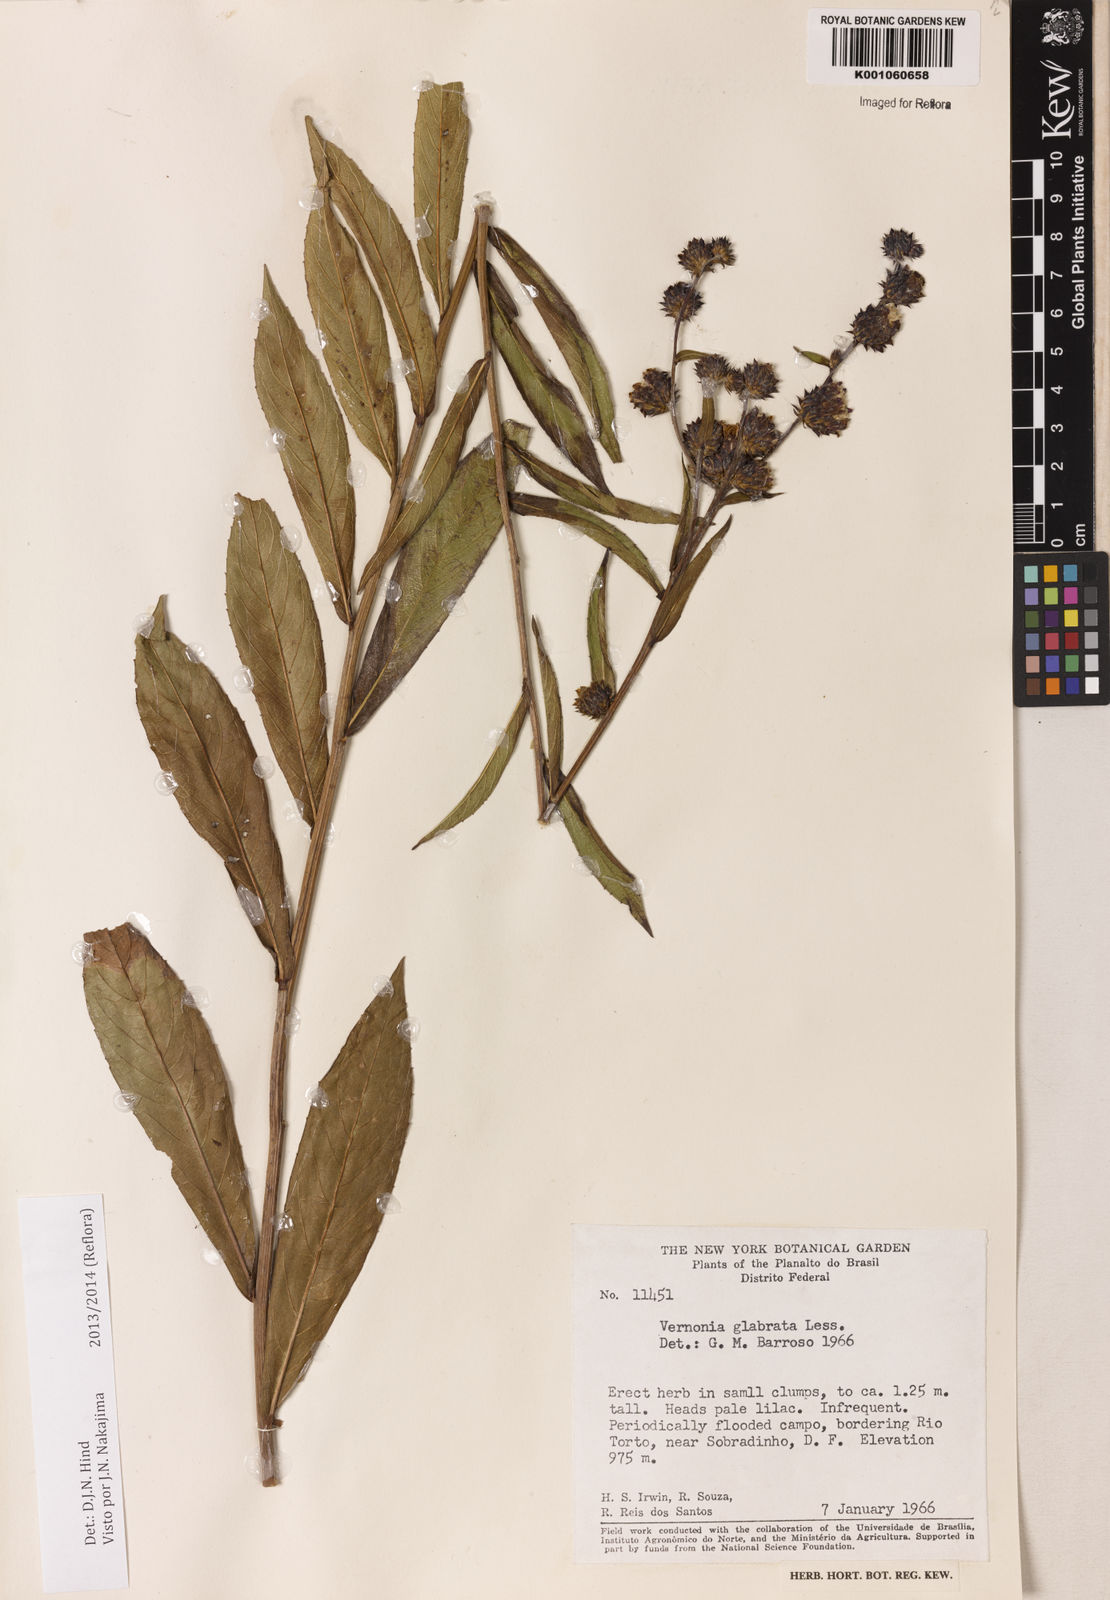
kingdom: Plantae
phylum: Tracheophyta
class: Magnoliopsida
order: Asterales
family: Asteraceae
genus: Lessingianthus
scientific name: Lessingianthus glabratus
